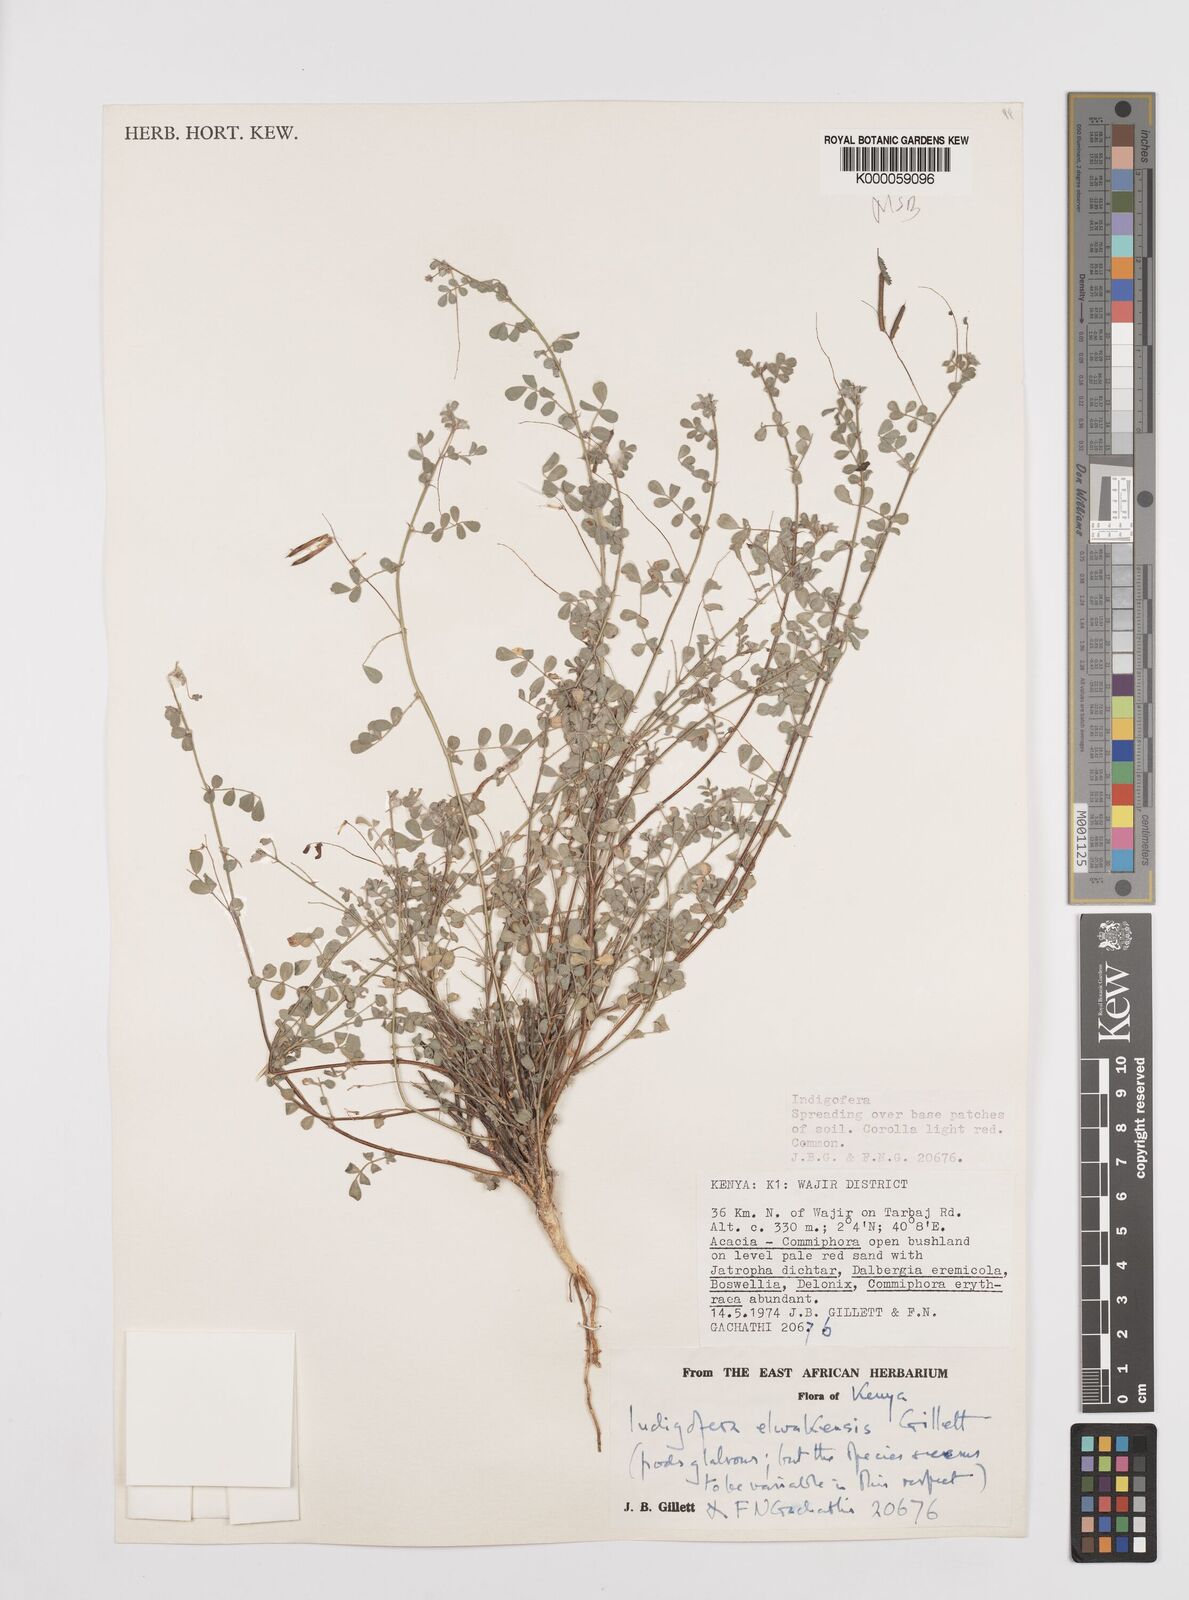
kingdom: Plantae
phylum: Tracheophyta
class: Magnoliopsida
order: Fabales
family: Fabaceae
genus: Indigofera
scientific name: Indigofera elwakensis
